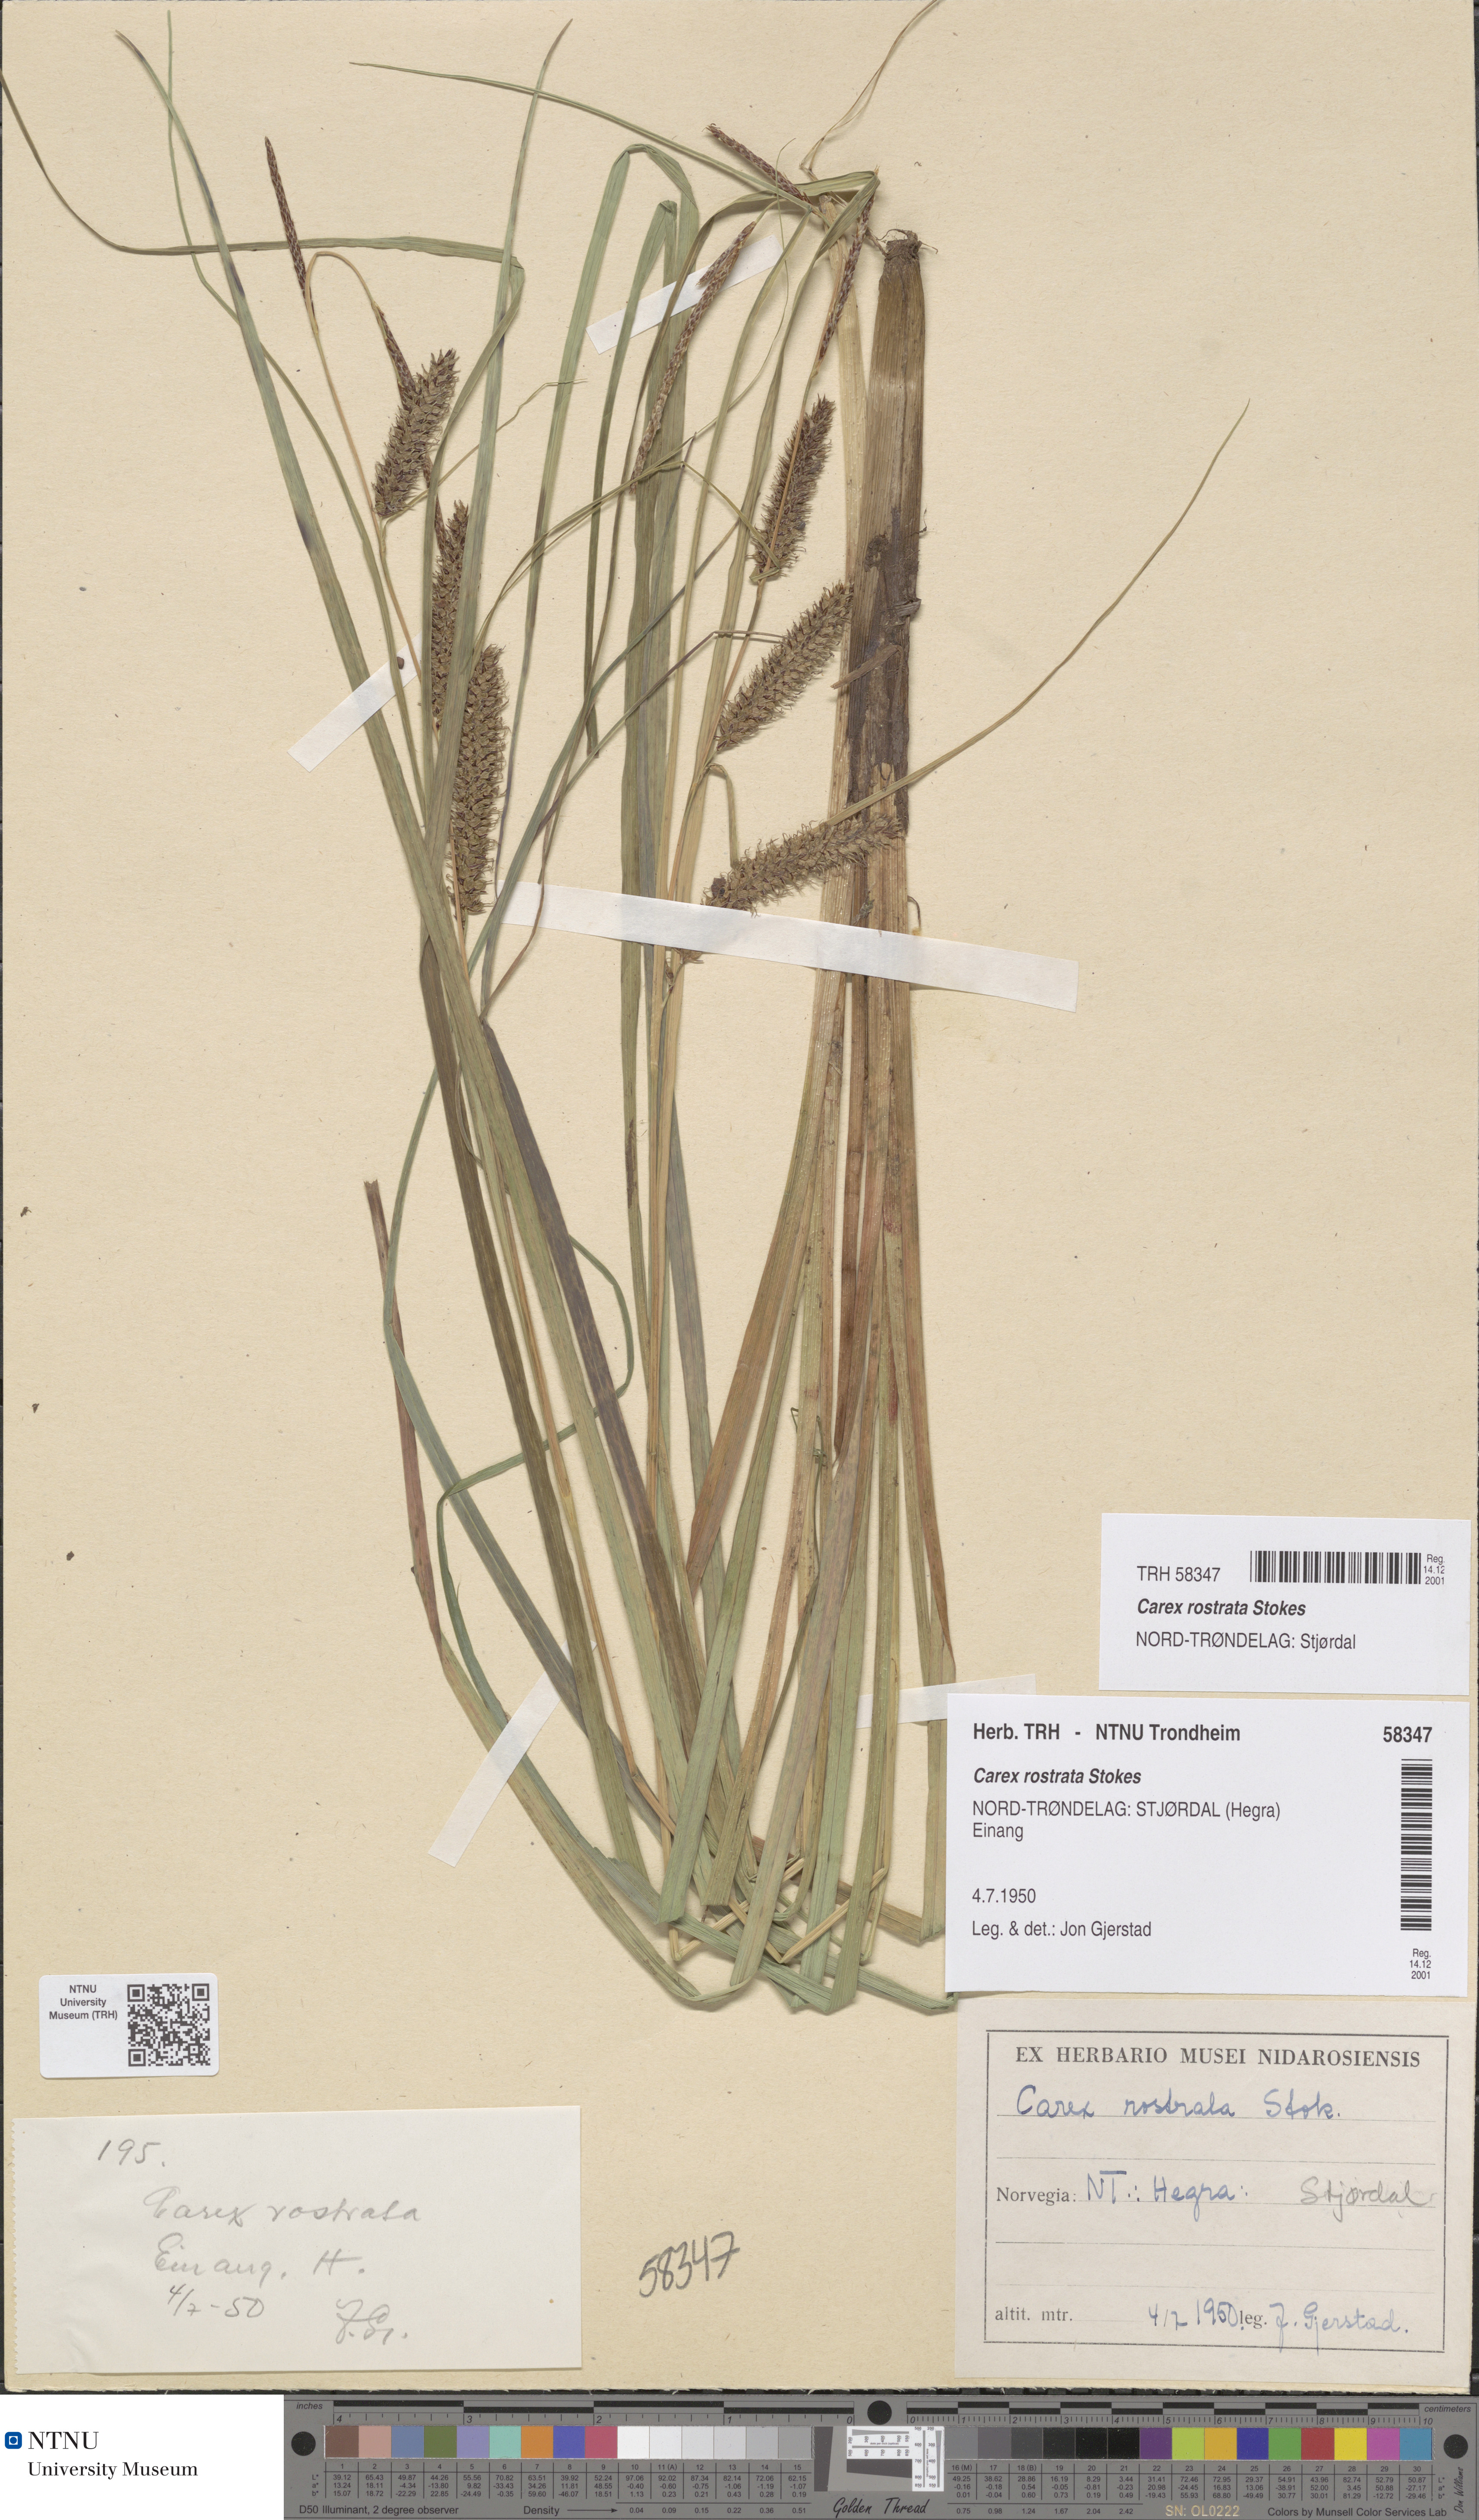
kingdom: Plantae
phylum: Tracheophyta
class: Liliopsida
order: Poales
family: Cyperaceae
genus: Carex
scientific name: Carex rostrata
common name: Bottle sedge
